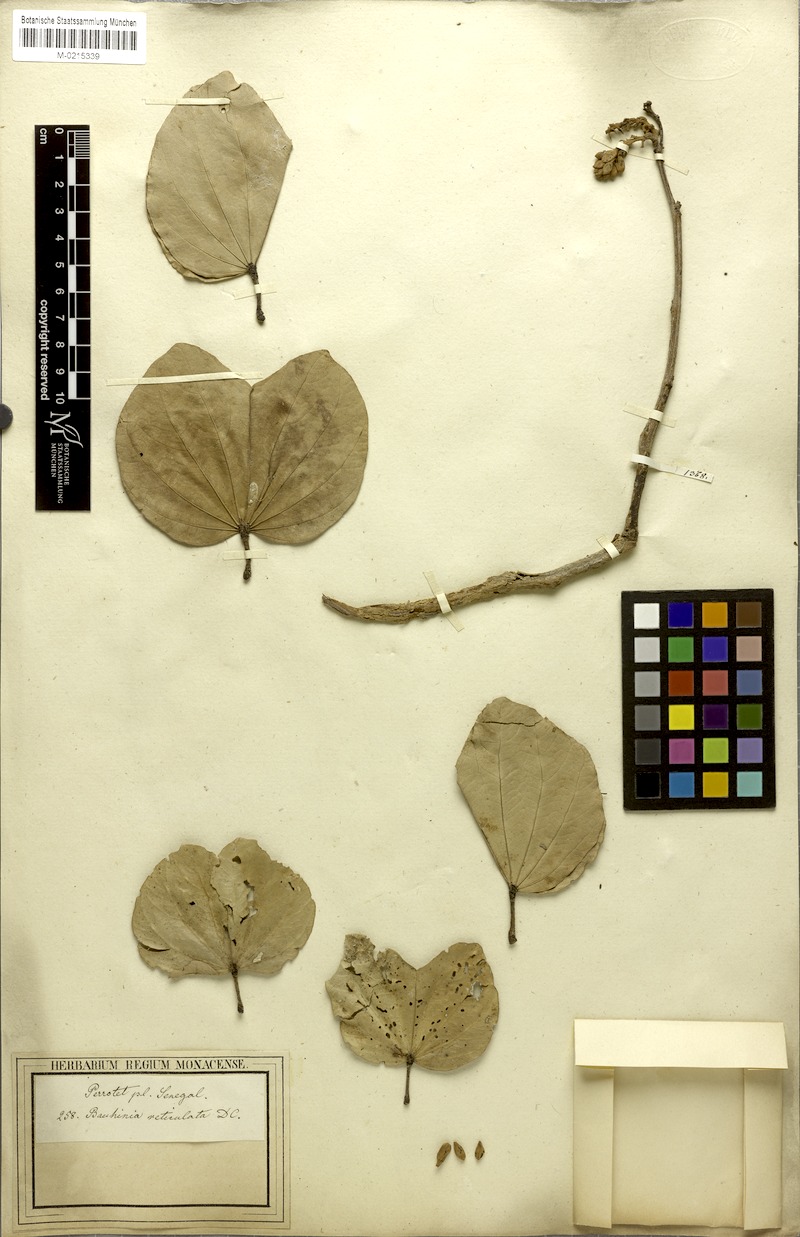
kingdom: Plantae
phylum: Tracheophyta
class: Magnoliopsida
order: Fabales
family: Fabaceae
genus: Piliostigma
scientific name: Piliostigma reticulatum
